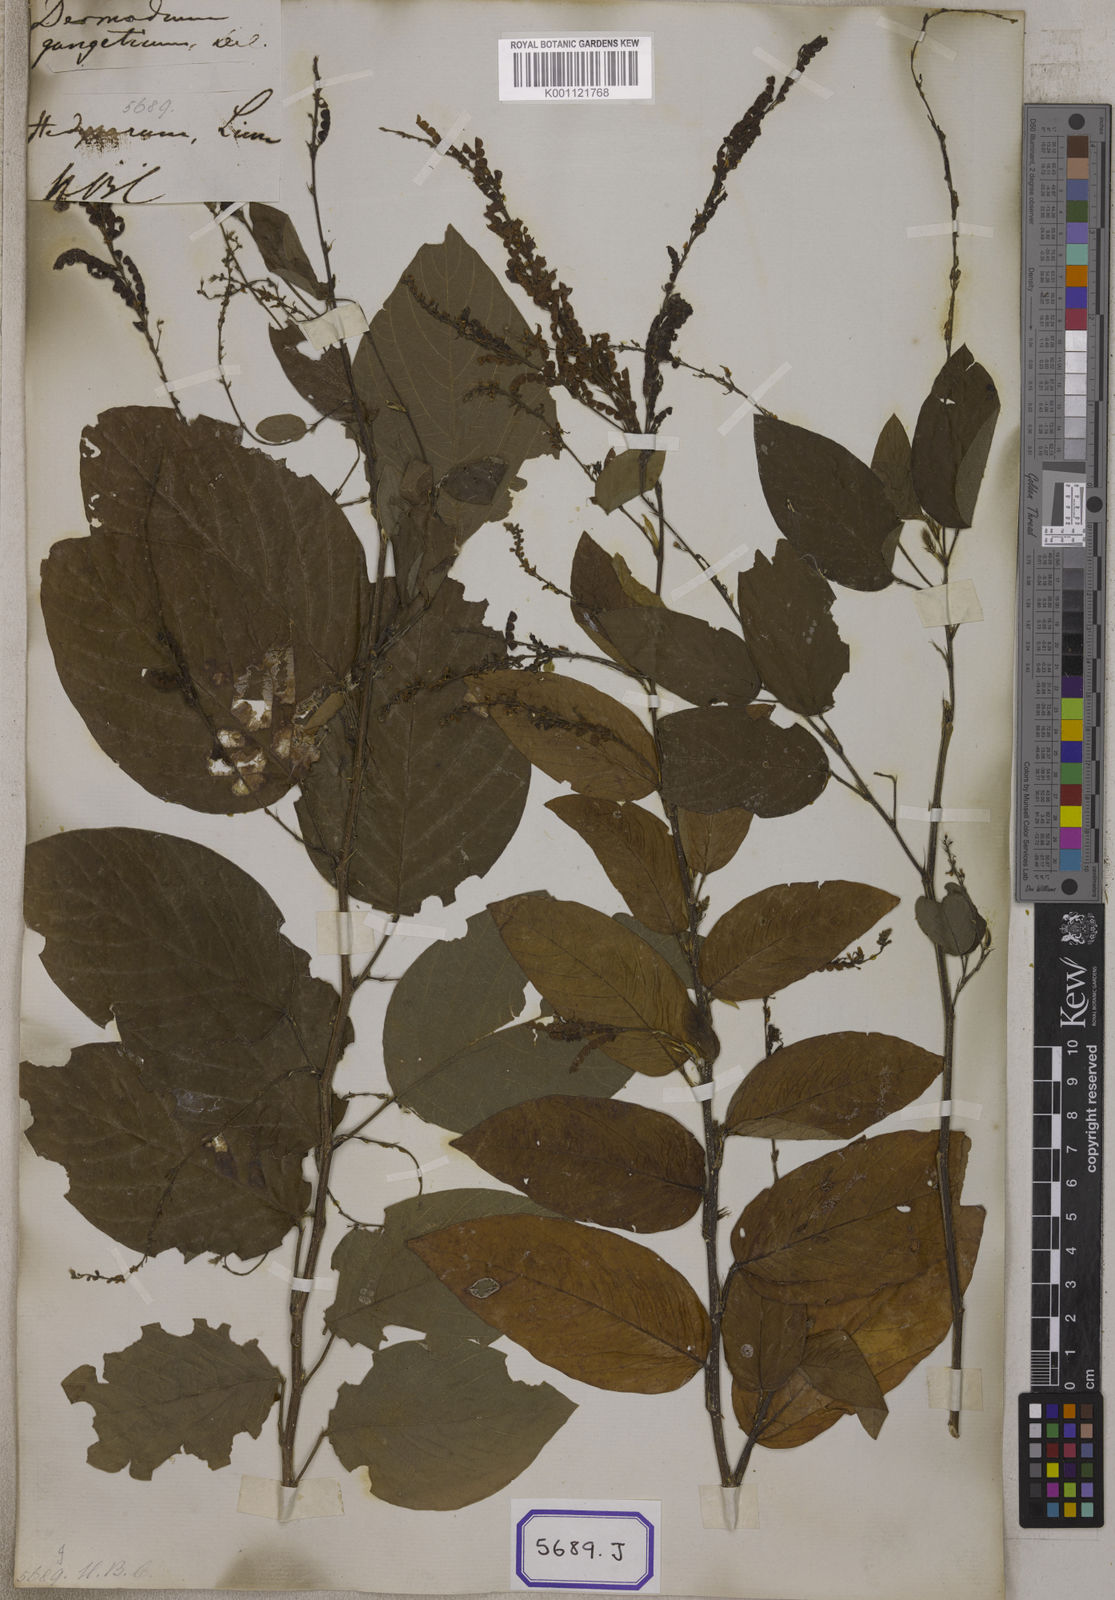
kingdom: Plantae
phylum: Tracheophyta
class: Magnoliopsida
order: Fabales
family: Fabaceae
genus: Pleurolobus
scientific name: Pleurolobus gangeticus
